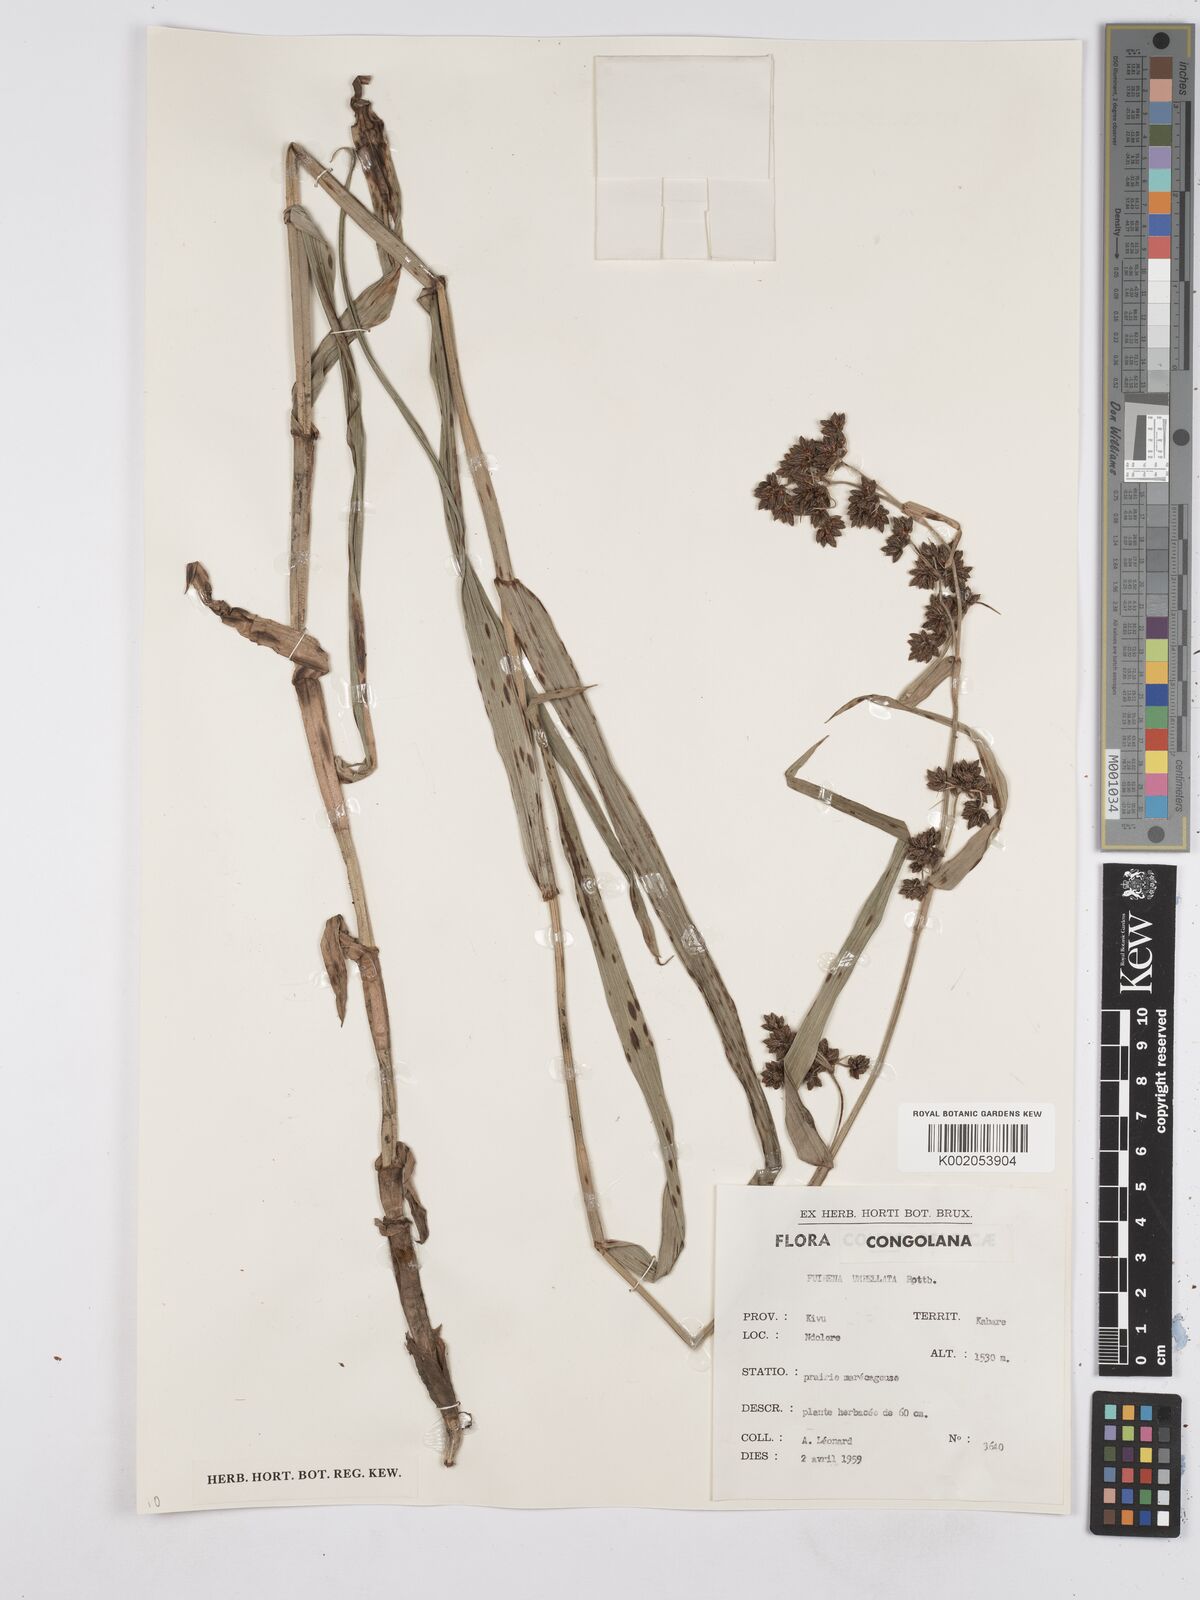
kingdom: Plantae
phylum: Tracheophyta
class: Liliopsida
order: Poales
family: Cyperaceae
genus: Fuirena
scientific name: Fuirena umbellata
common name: Yefen
